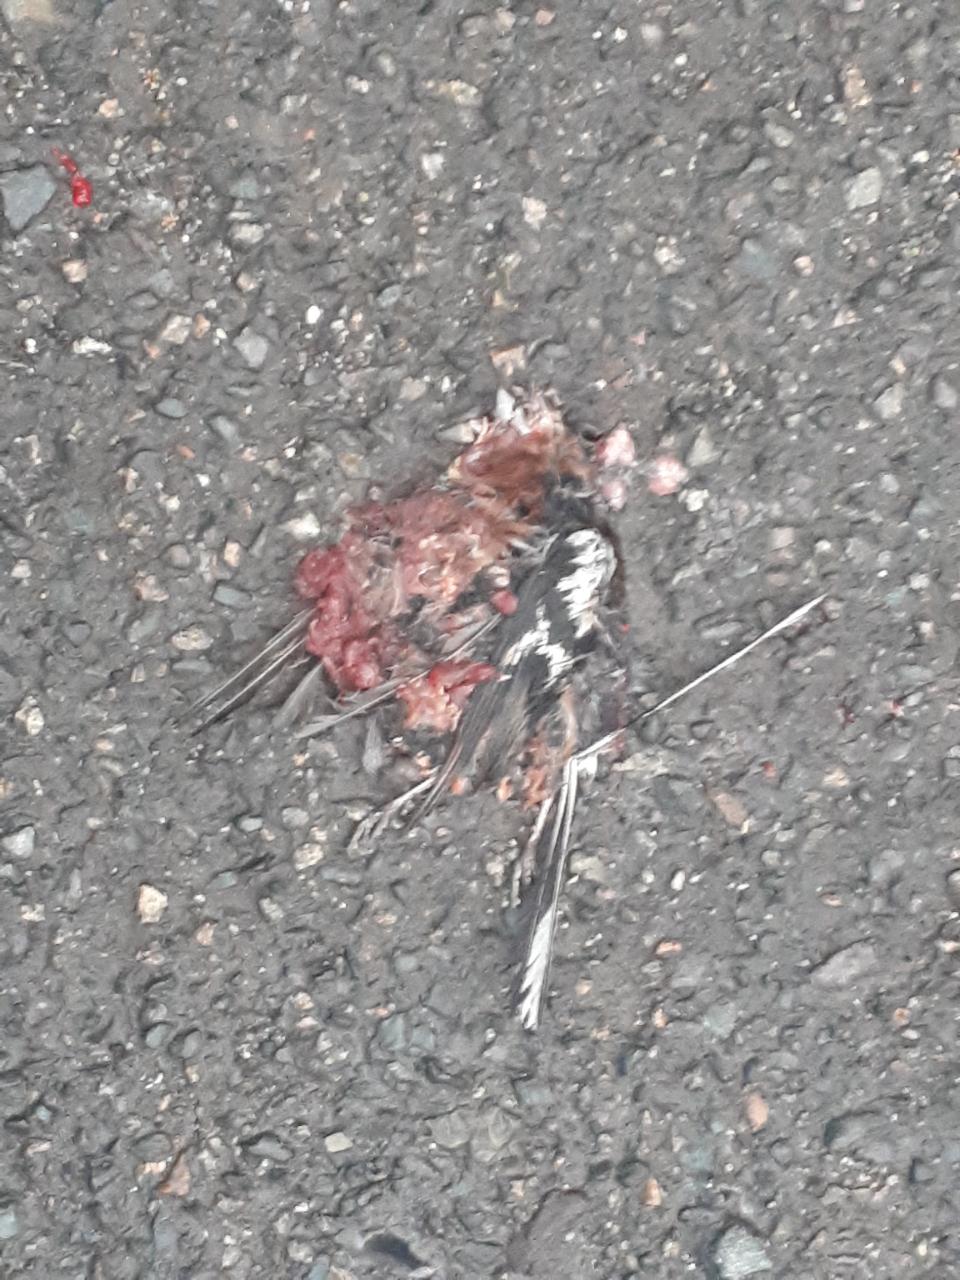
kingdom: Animalia
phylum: Chordata
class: Aves
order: Piciformes
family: Picidae
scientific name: Picidae
